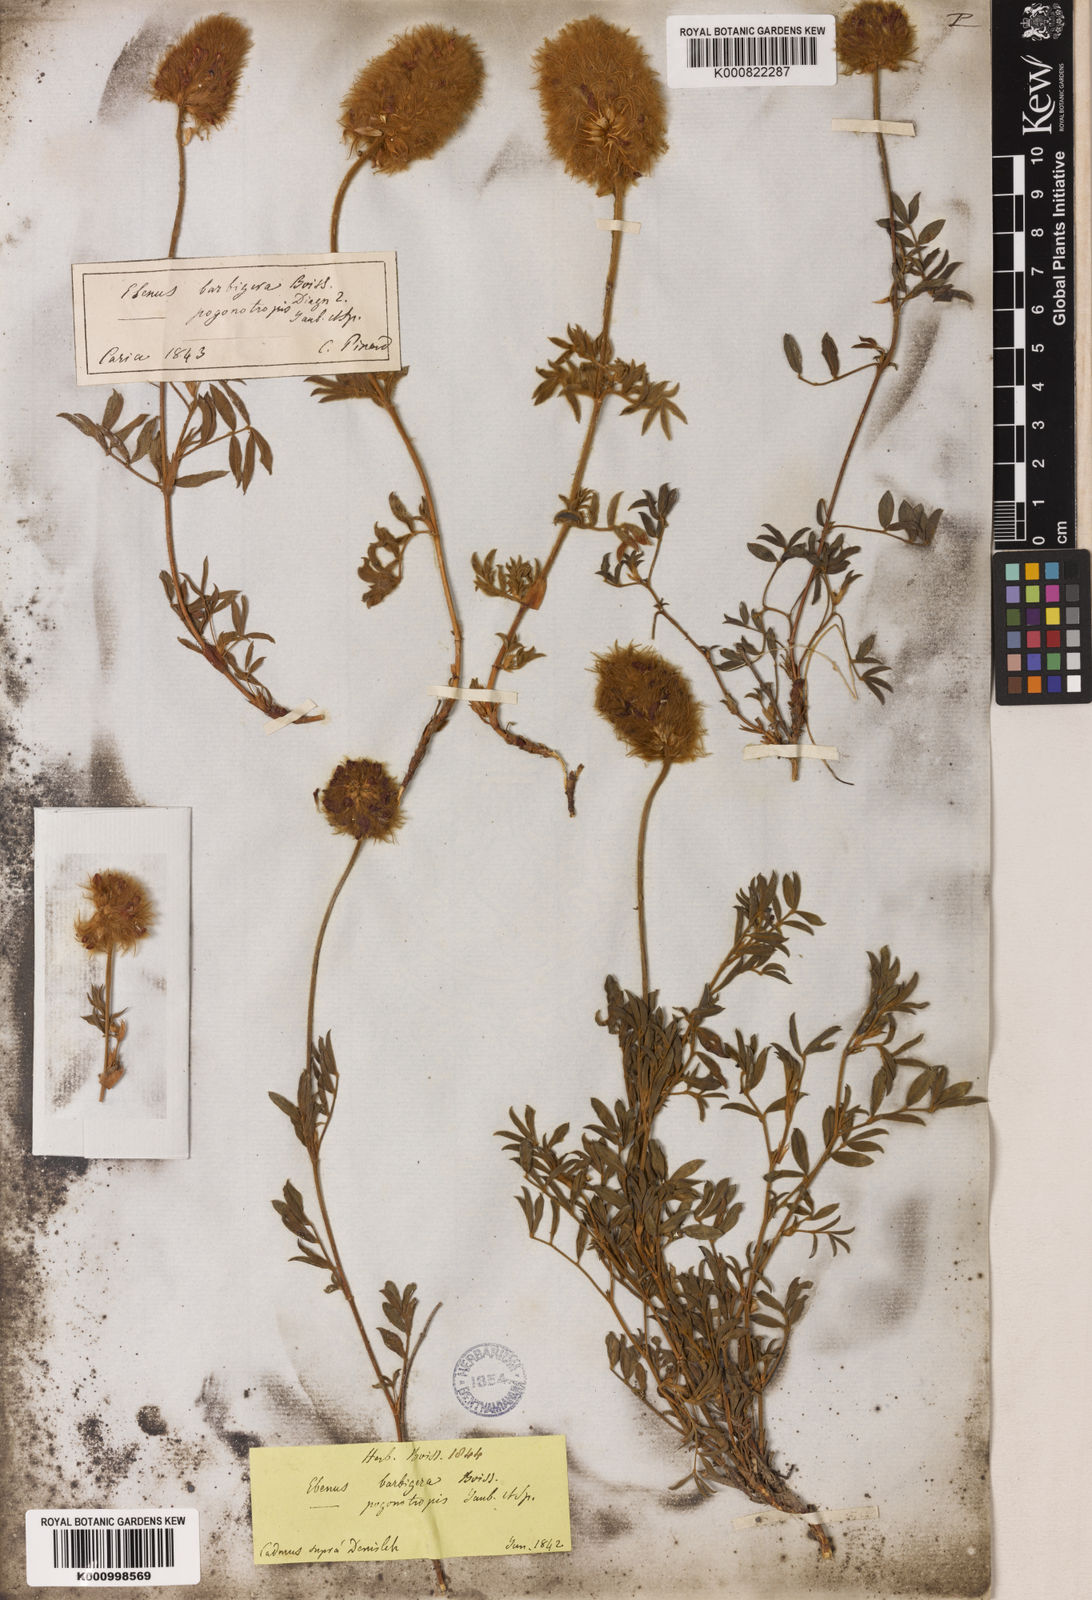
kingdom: Plantae
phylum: Tracheophyta
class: Magnoliopsida
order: Fabales
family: Fabaceae
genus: Ebenus
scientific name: Ebenus barbigera
